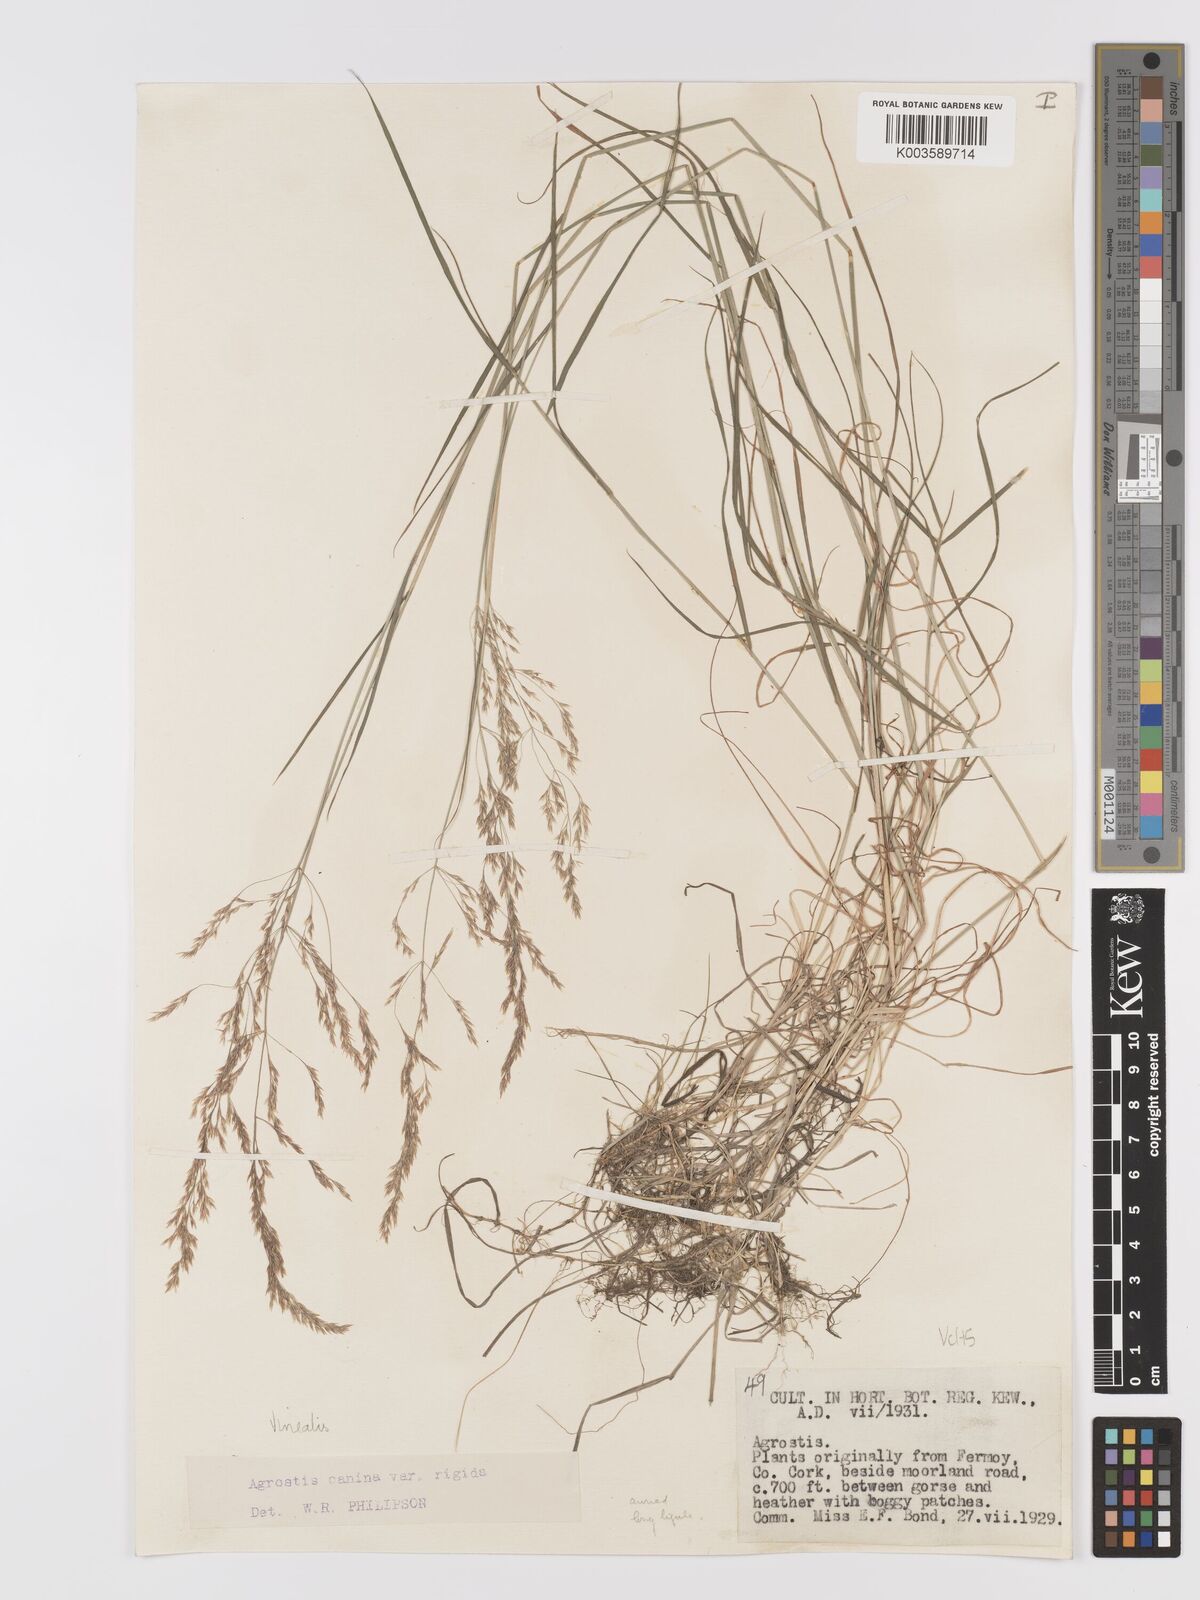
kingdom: Plantae
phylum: Tracheophyta
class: Liliopsida
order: Poales
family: Poaceae
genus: Agrostis
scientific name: Agrostis
